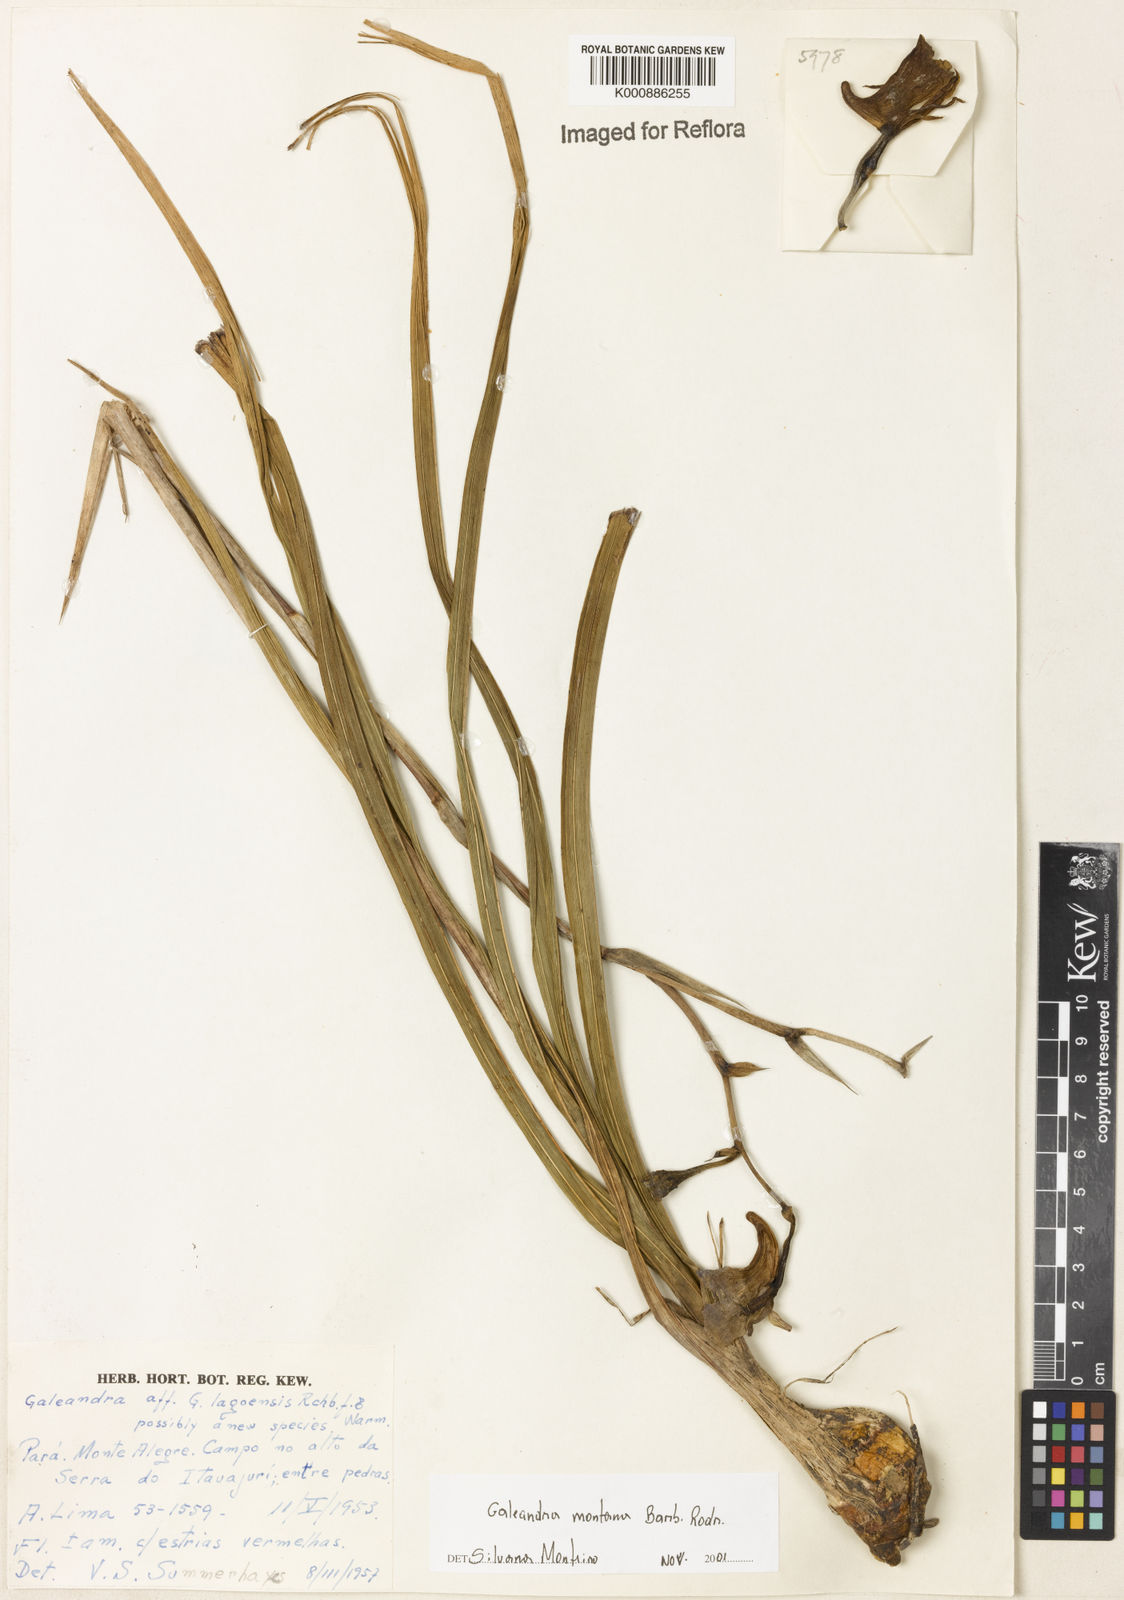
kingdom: Plantae
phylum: Tracheophyta
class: Liliopsida
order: Asparagales
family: Orchidaceae
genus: Galeandra
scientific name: Galeandra montana
